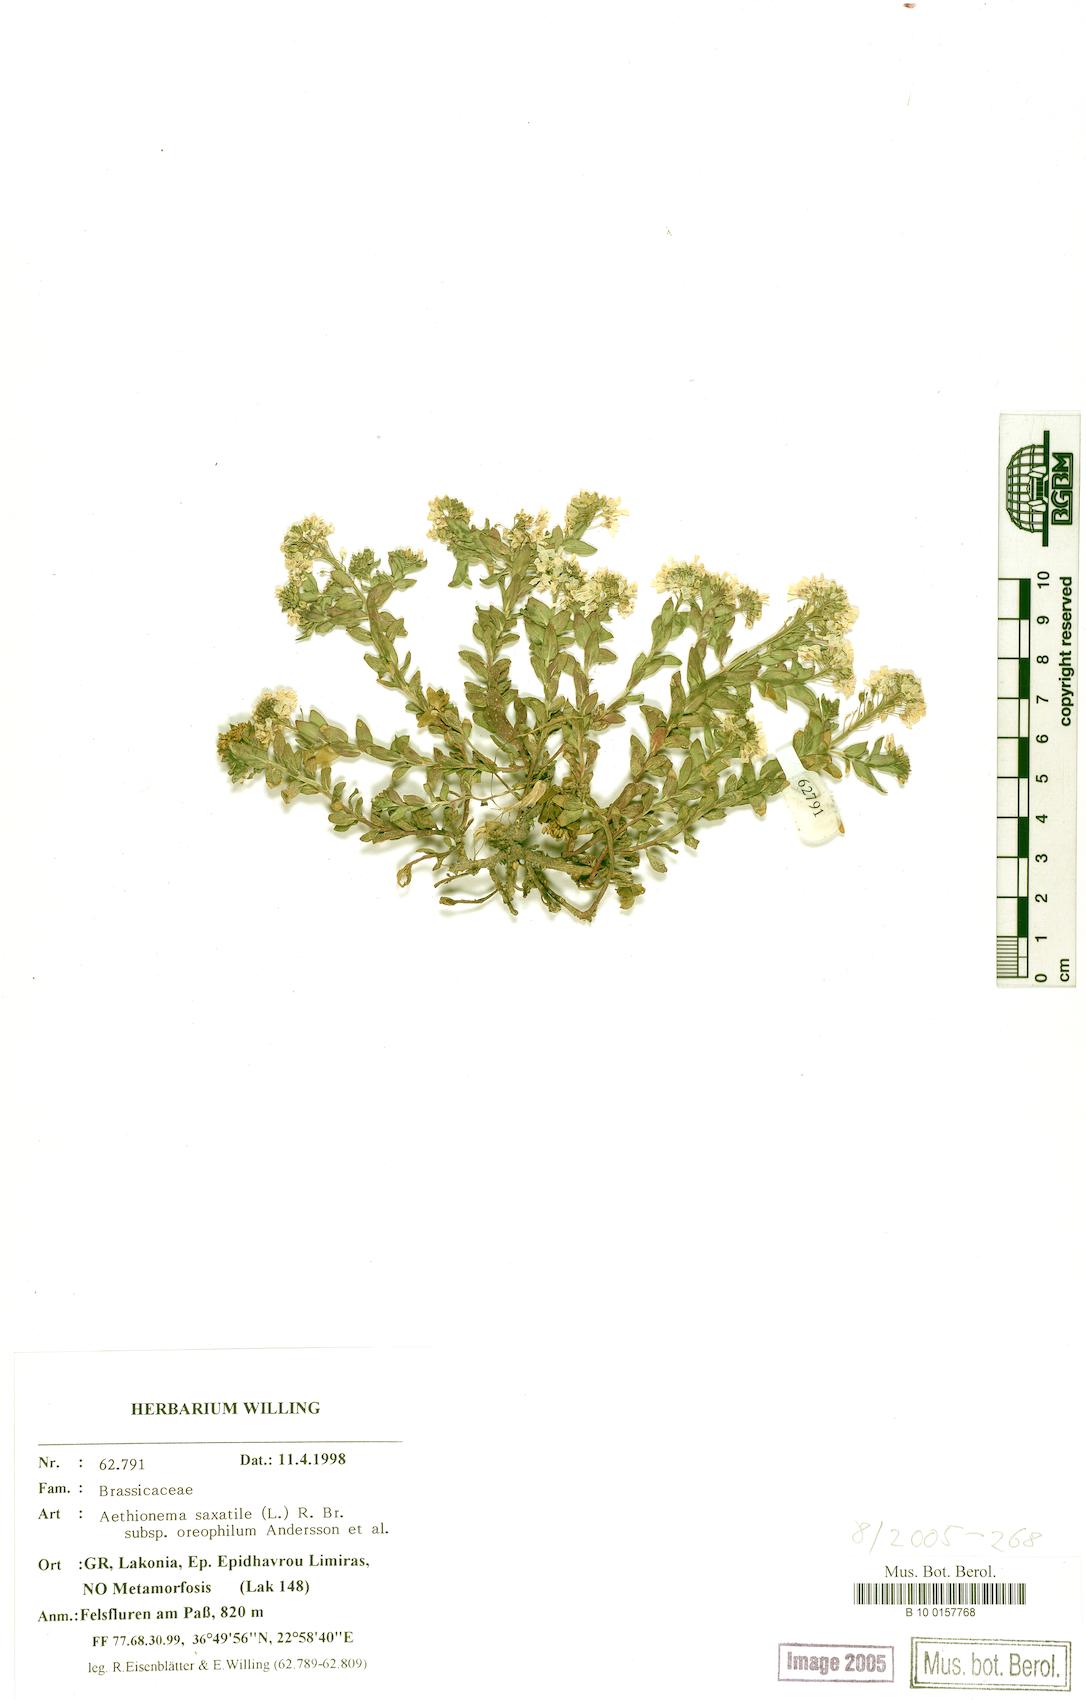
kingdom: Plantae
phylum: Tracheophyta
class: Magnoliopsida
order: Brassicales
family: Brassicaceae
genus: Aethionema
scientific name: Aethionema saxatile
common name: Burnt candytuft
